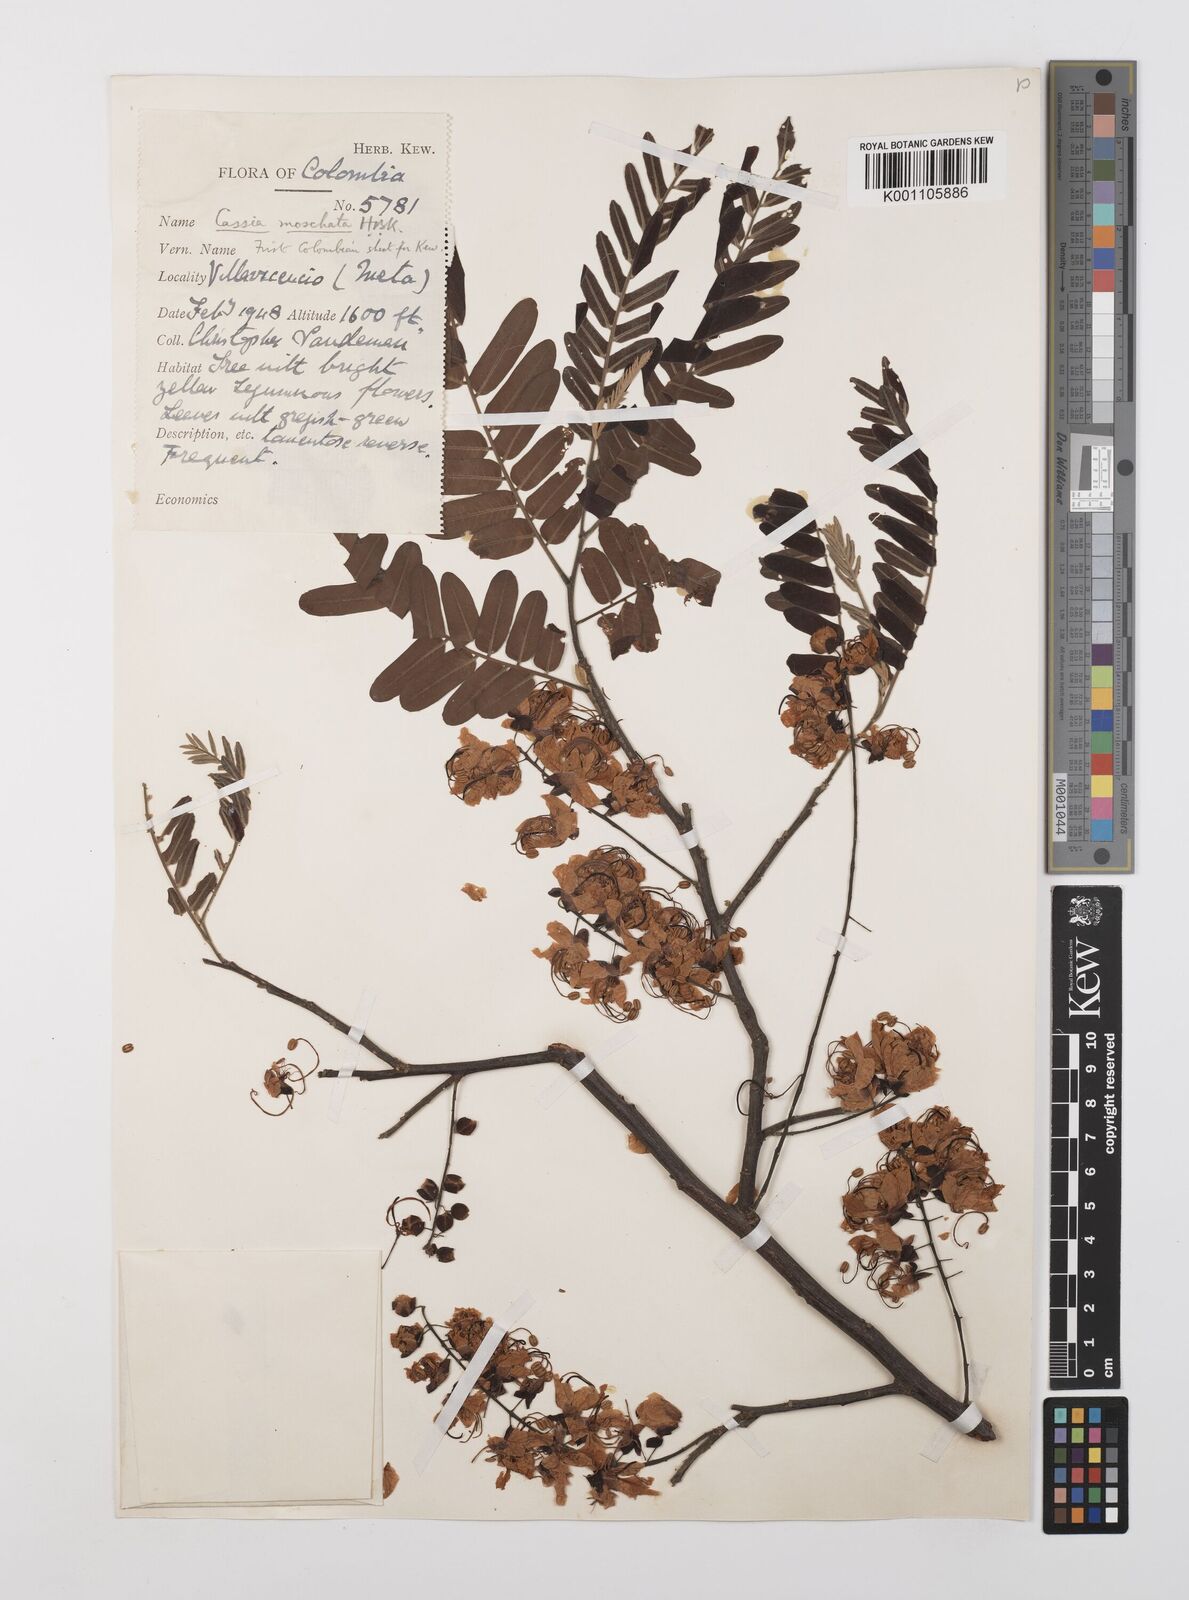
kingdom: Plantae
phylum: Tracheophyta
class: Magnoliopsida
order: Fabales
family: Fabaceae
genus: Cassia
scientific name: Cassia moschata
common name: Bronze shower tree
